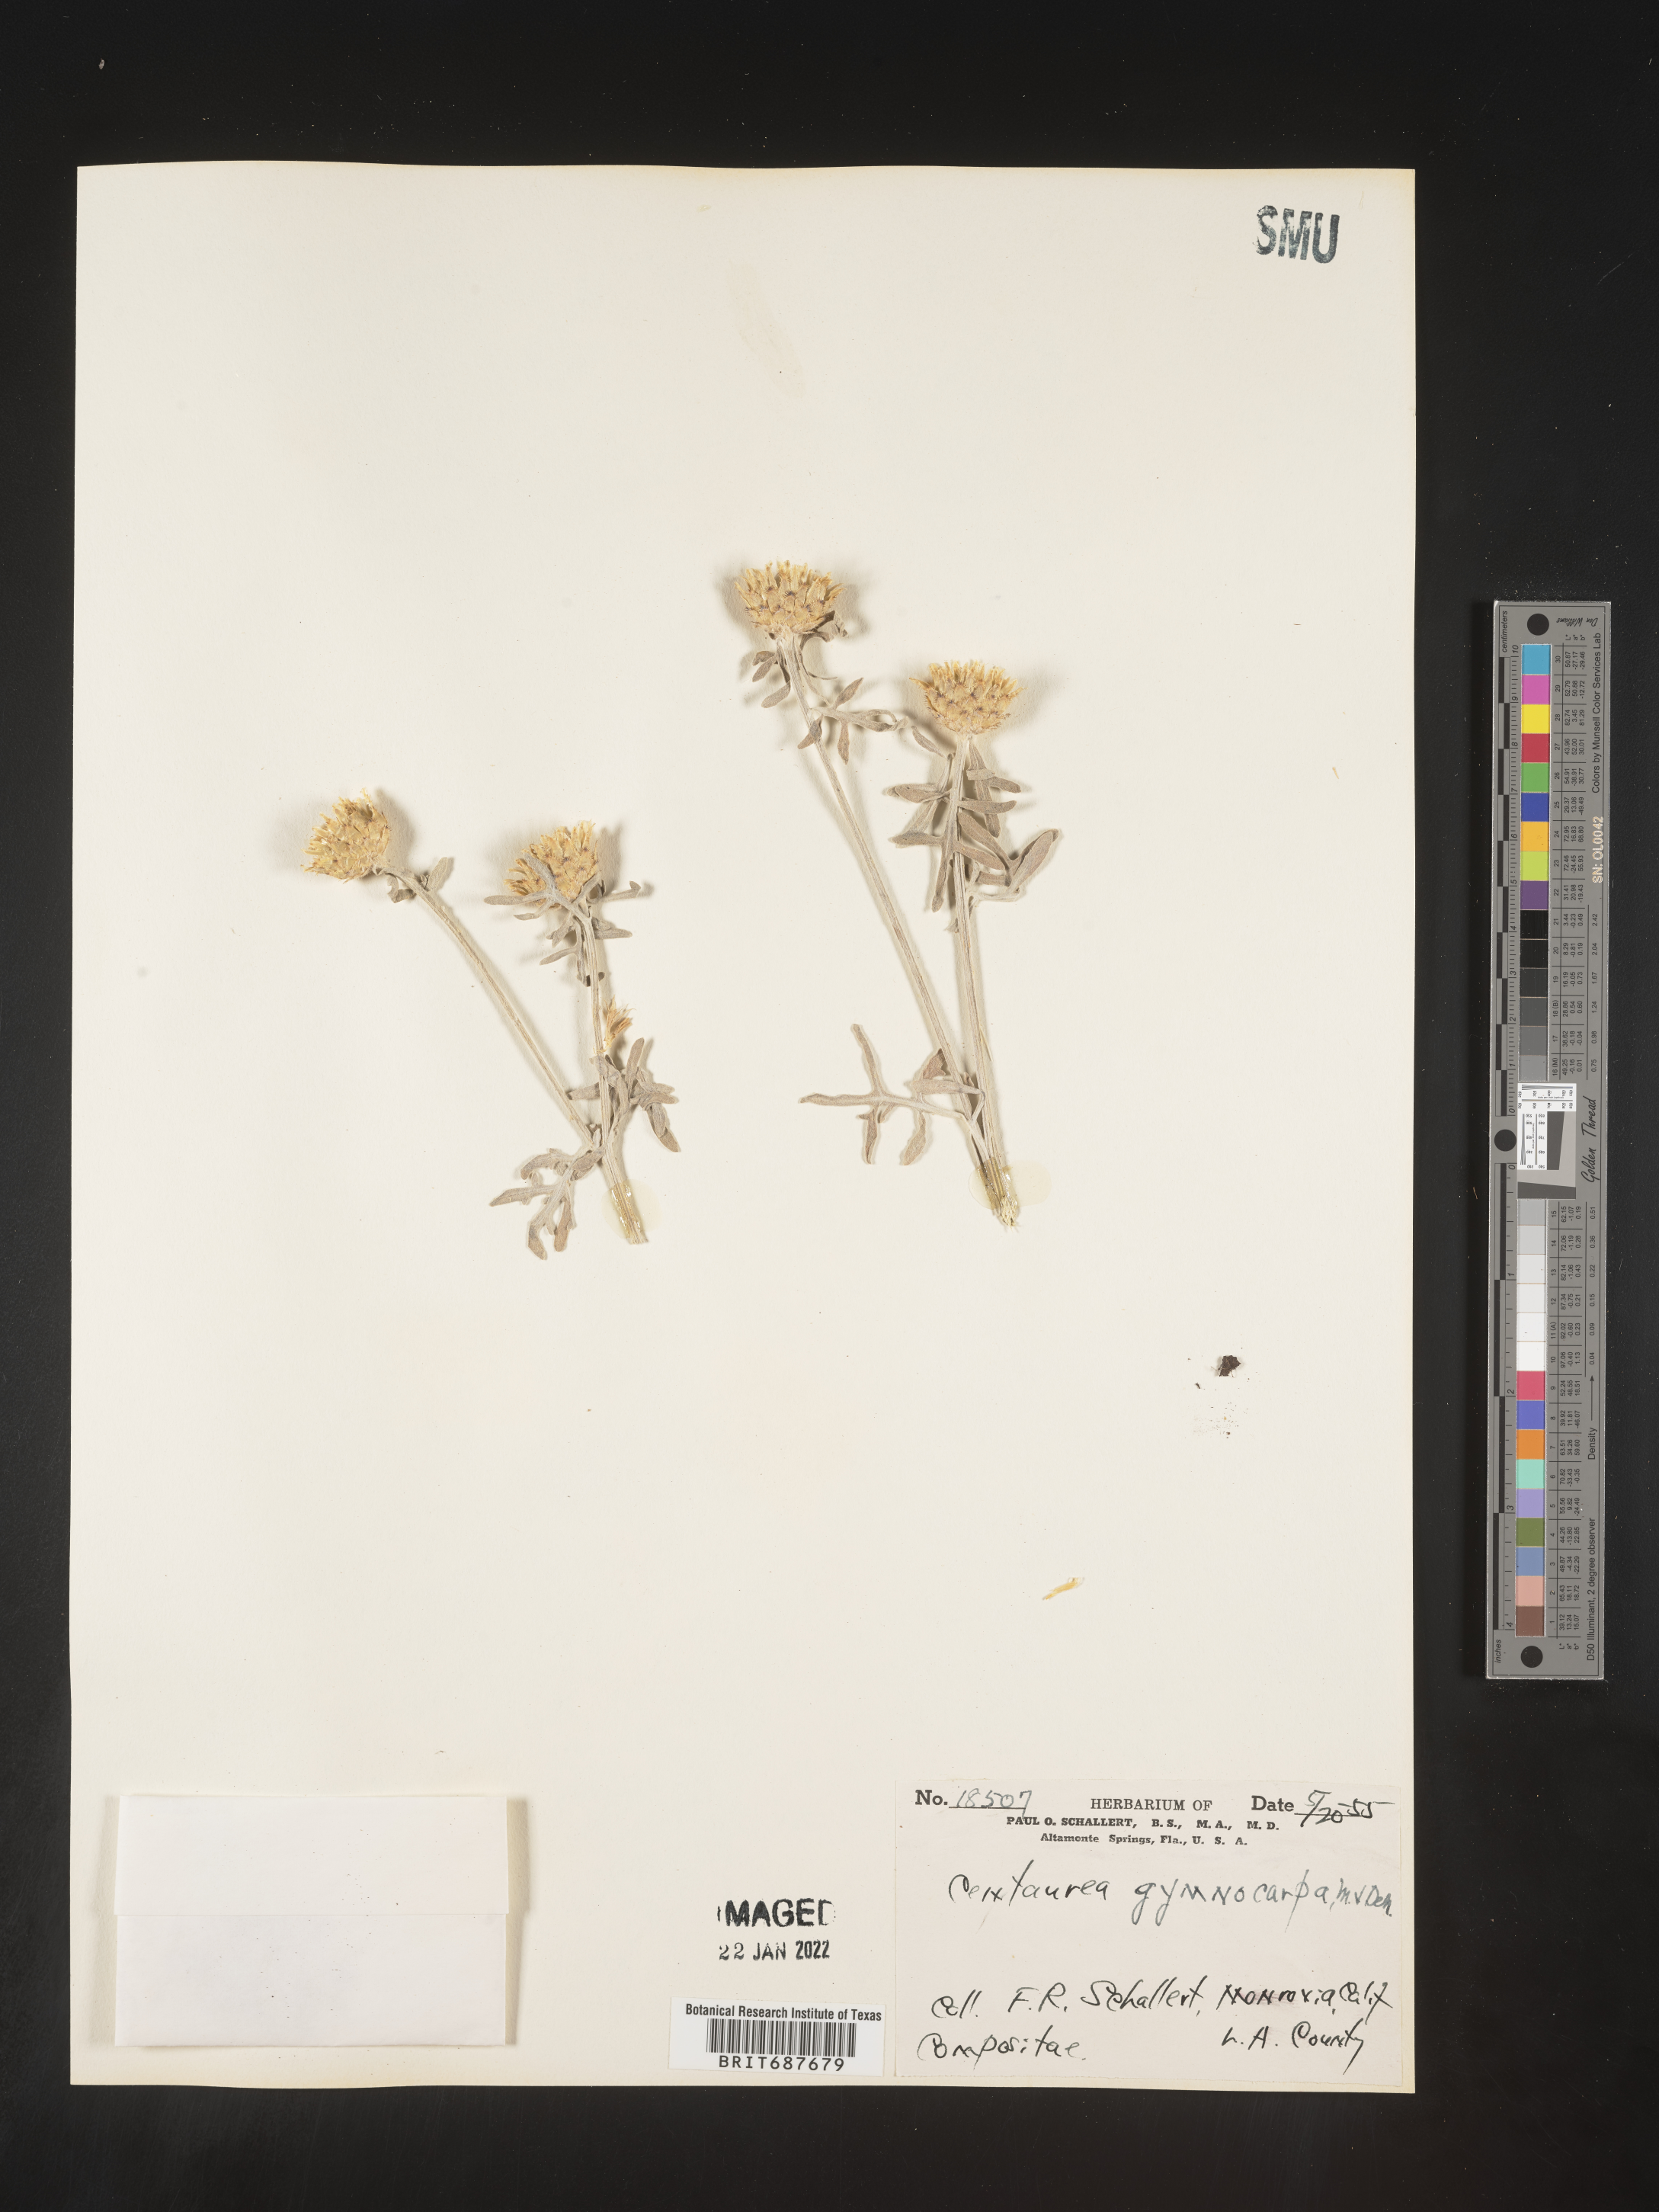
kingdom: Plantae
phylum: Tracheophyta
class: Magnoliopsida
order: Asterales
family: Asteraceae
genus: Centaurea
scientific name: Centaurea
